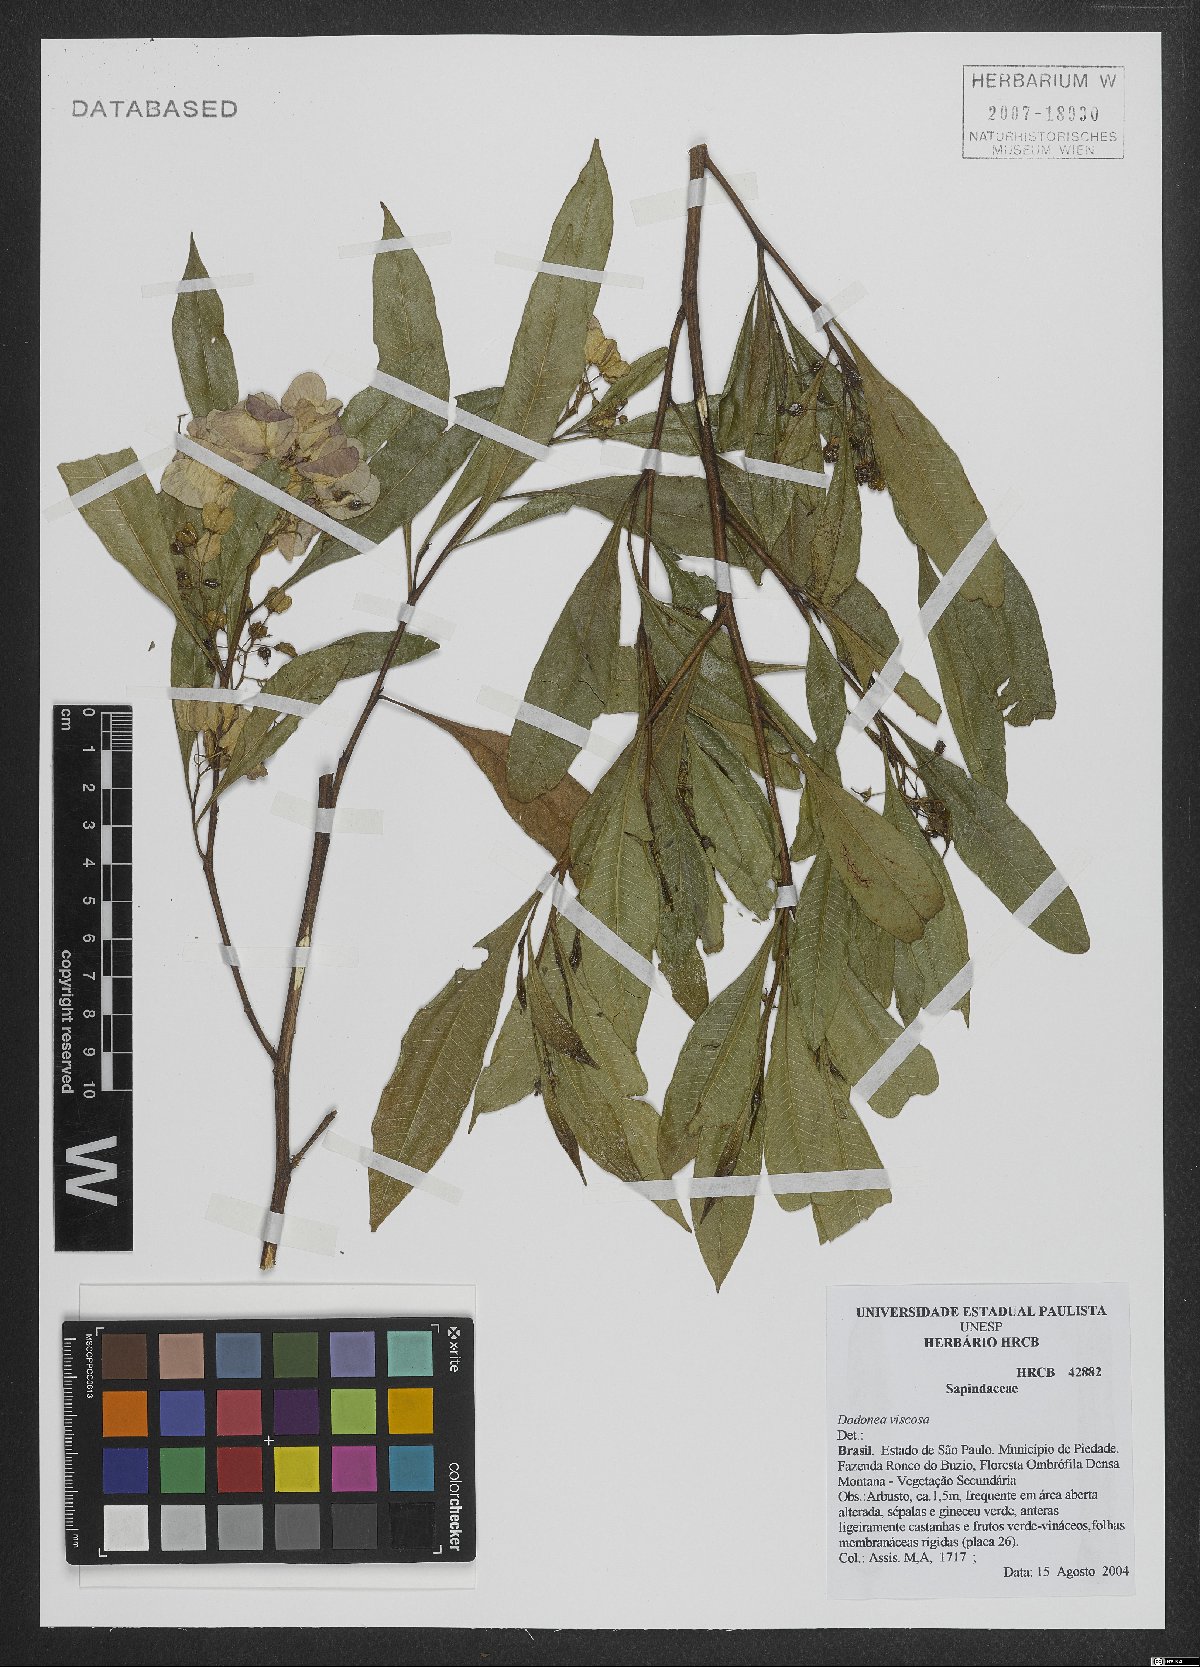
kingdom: Plantae
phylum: Tracheophyta
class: Magnoliopsida
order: Sapindales
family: Sapindaceae
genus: Dodonaea
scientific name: Dodonaea viscosa
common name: Hopbush
